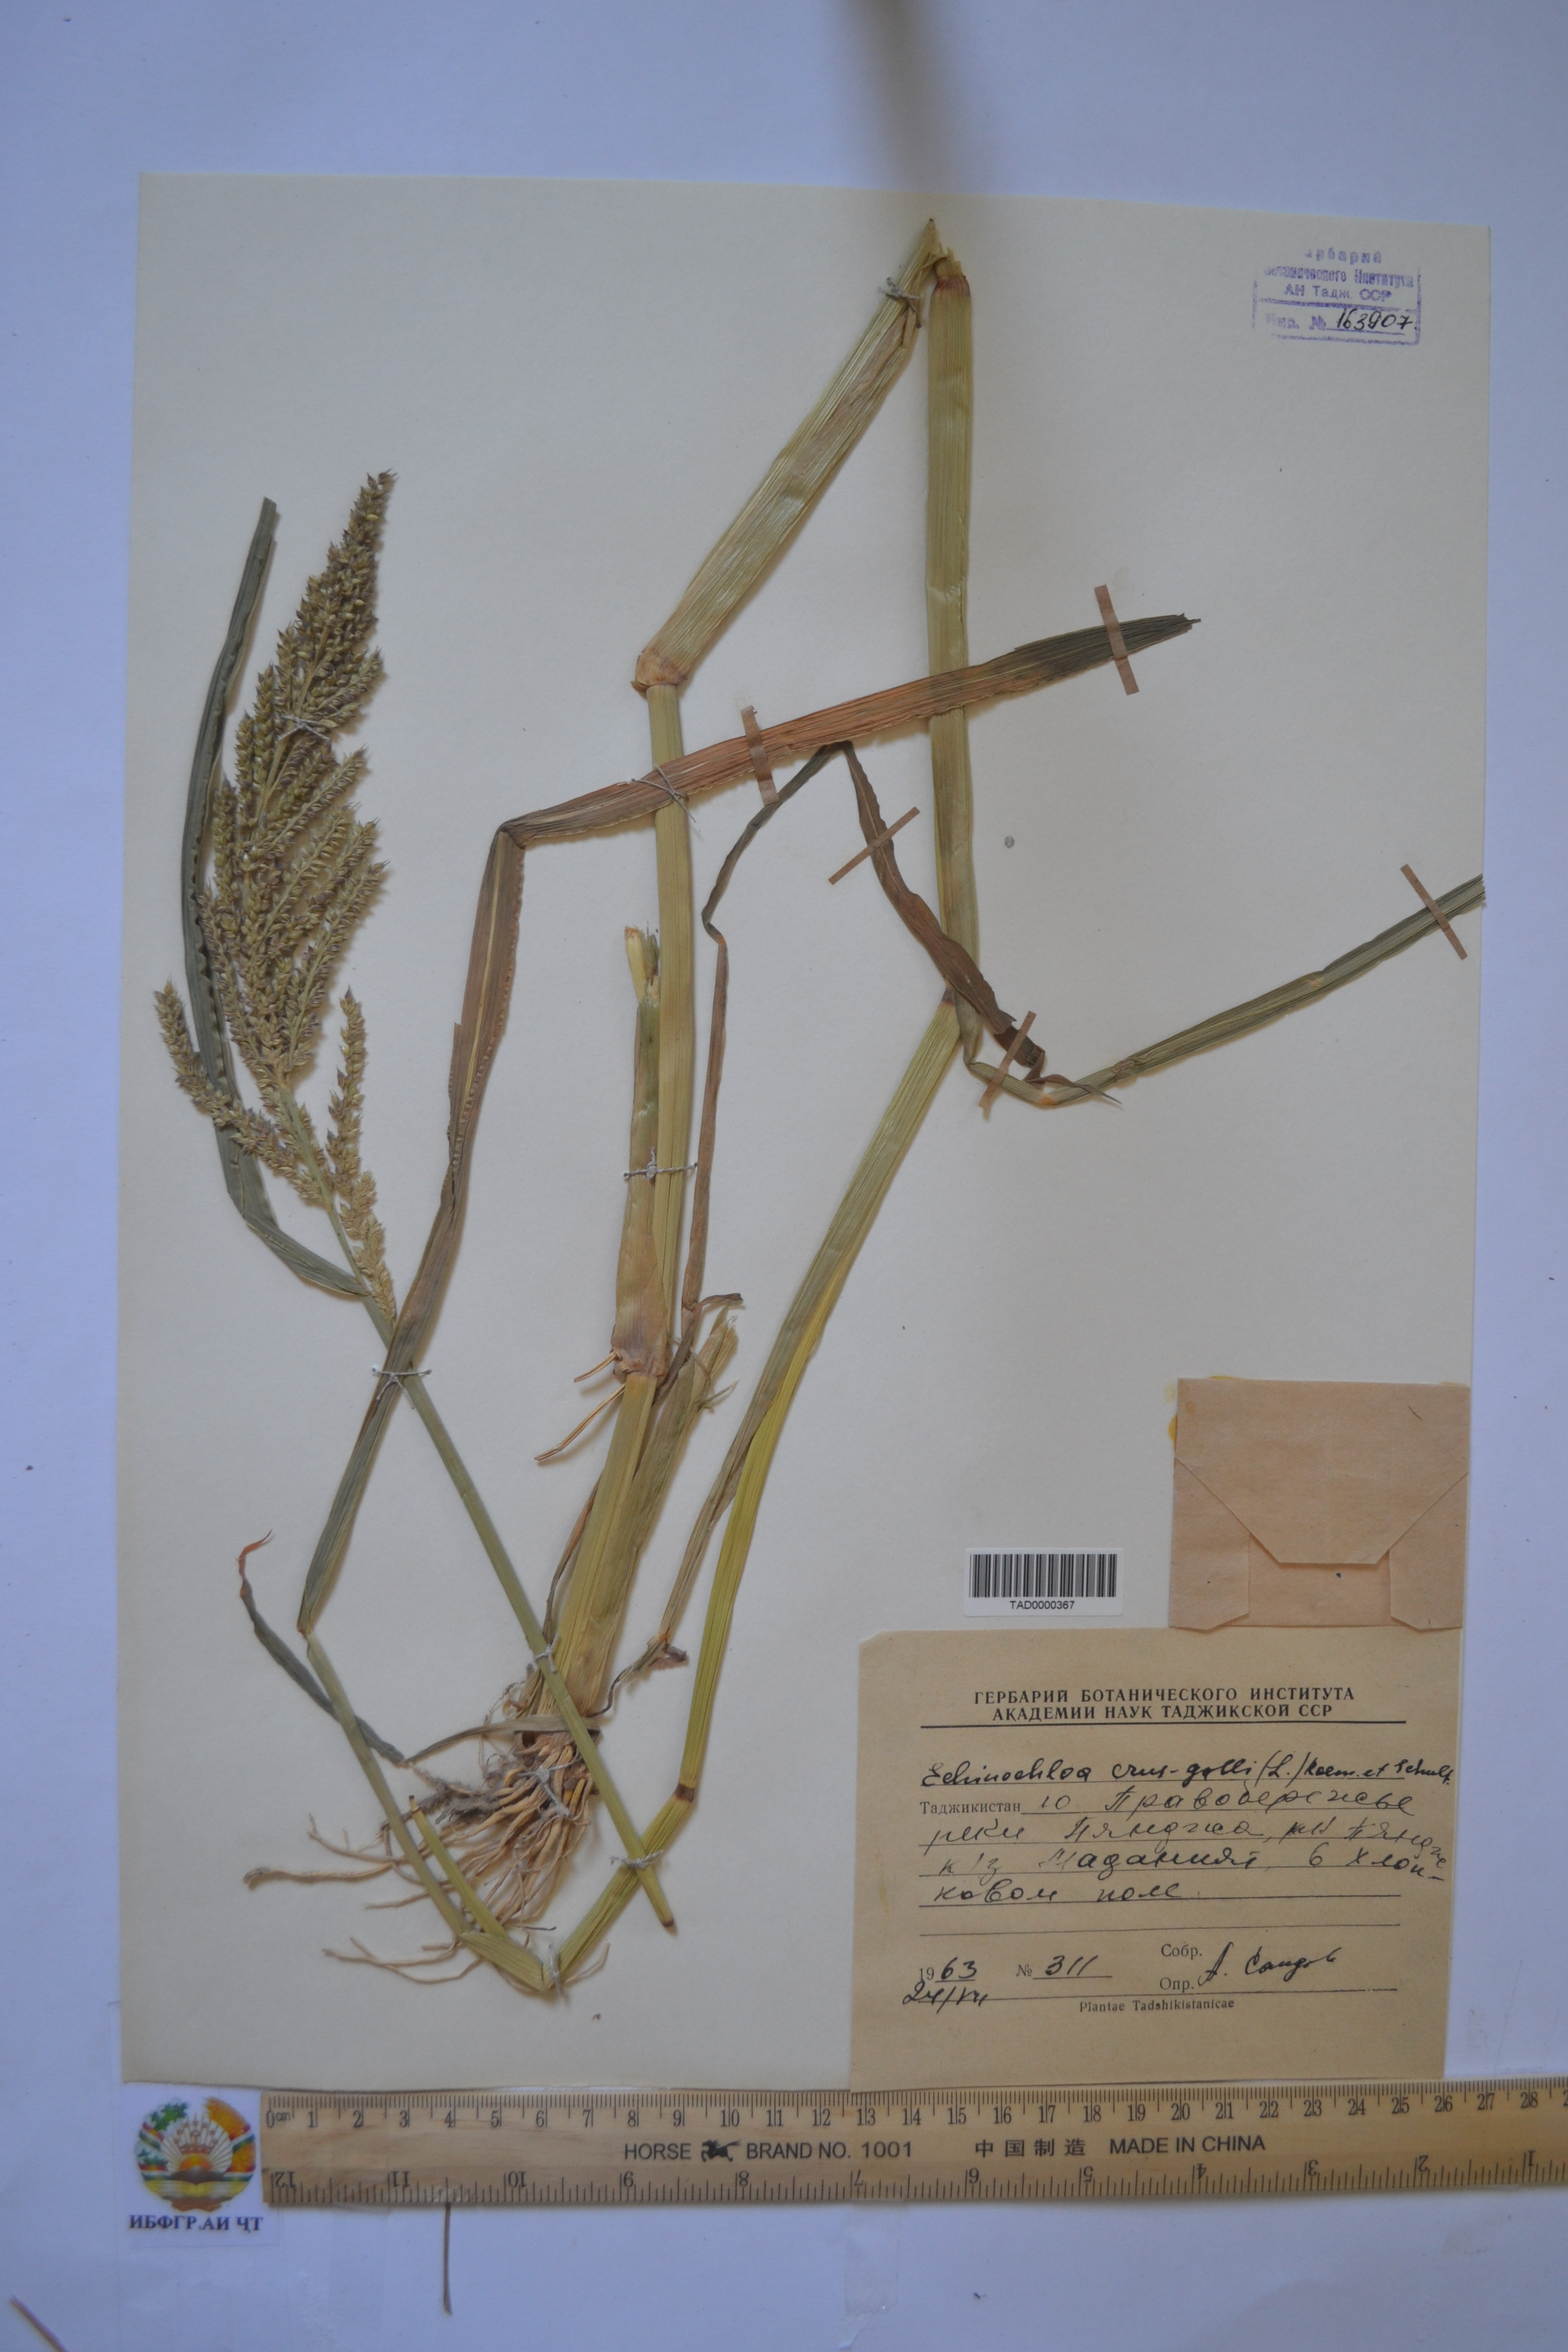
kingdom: Plantae
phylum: Tracheophyta
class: Liliopsida
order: Poales
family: Poaceae
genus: Echinochloa
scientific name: Echinochloa crus-galli
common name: Cockspur
